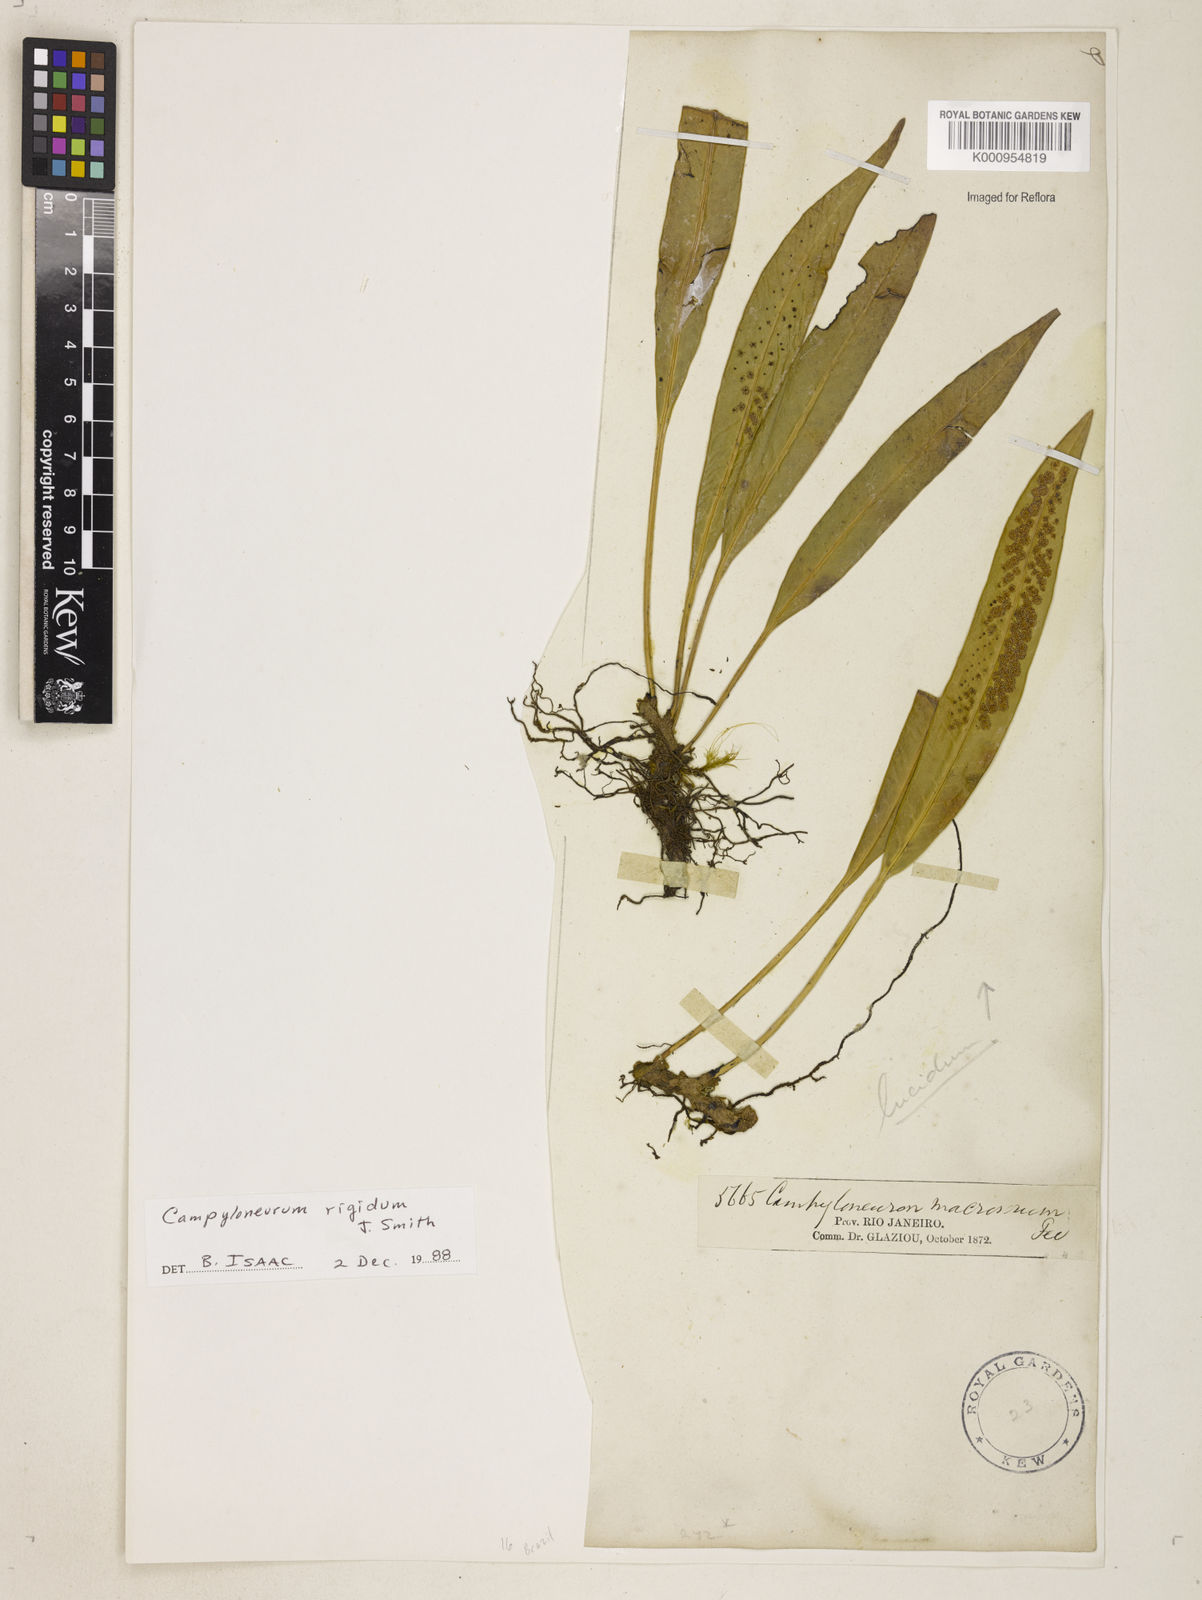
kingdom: Plantae
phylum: Tracheophyta
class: Polypodiopsida
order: Polypodiales
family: Polypodiaceae
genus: Campyloneurum
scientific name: Campyloneurum rigidum
